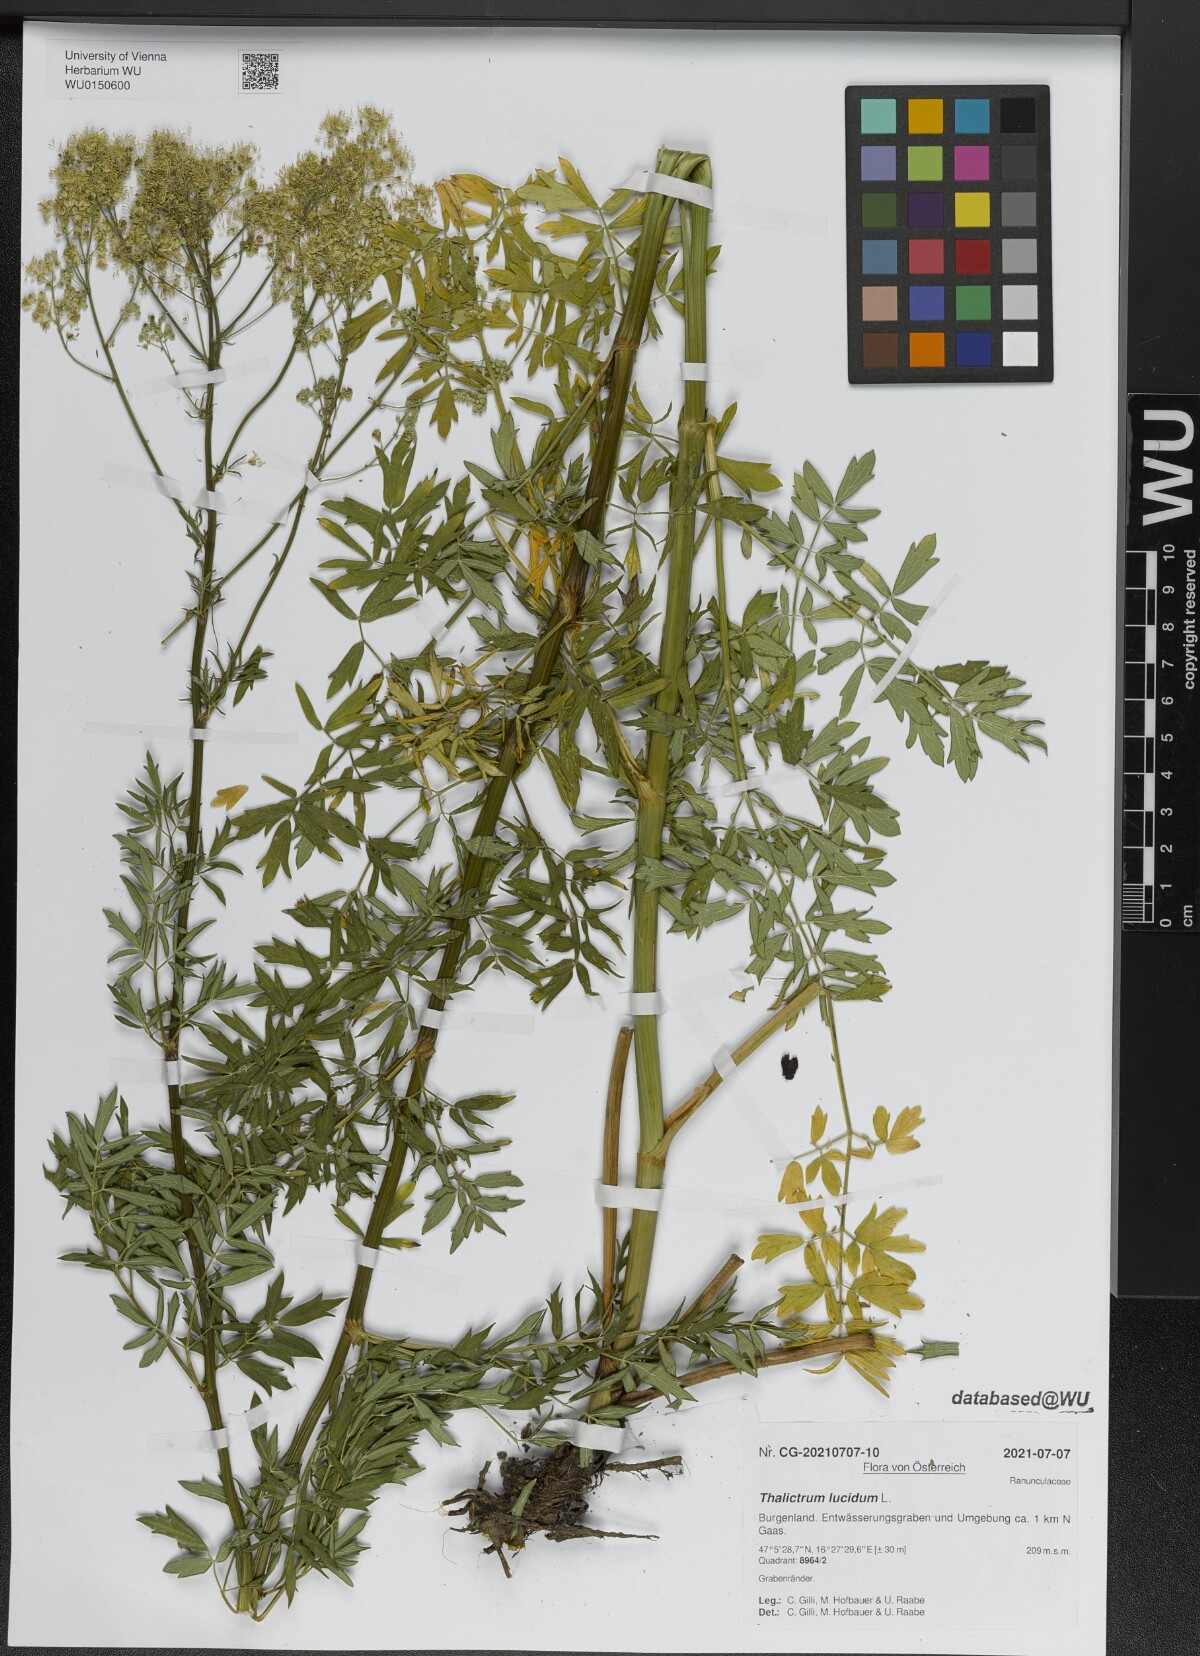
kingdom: Plantae
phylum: Tracheophyta
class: Magnoliopsida
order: Ranunculales
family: Ranunculaceae
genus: Thalictrum
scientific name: Thalictrum lucidum
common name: Shining meadow-rue
